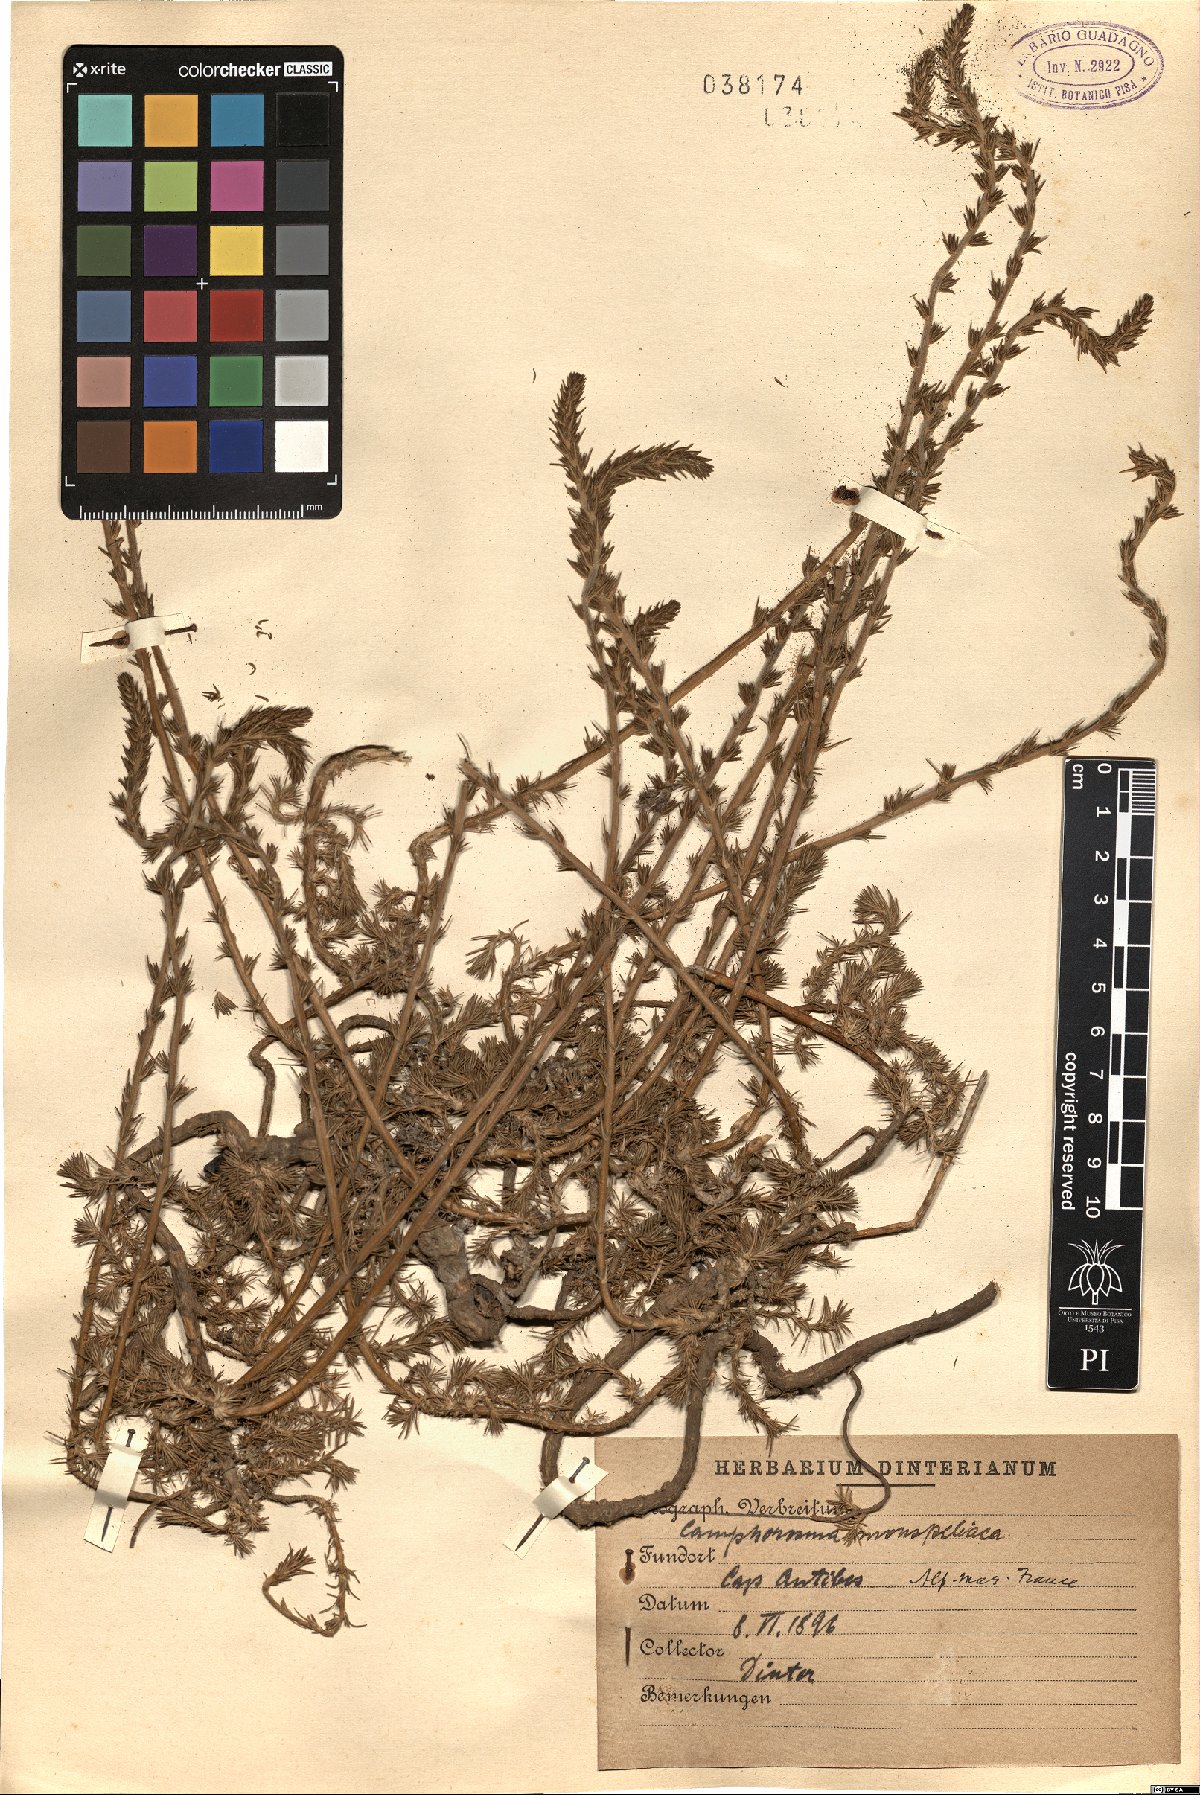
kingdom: Plantae
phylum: Tracheophyta
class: Magnoliopsida
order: Caryophyllales
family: Amaranthaceae
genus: Camphorosma
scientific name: Camphorosma monspeliaca
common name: Camphorfume
